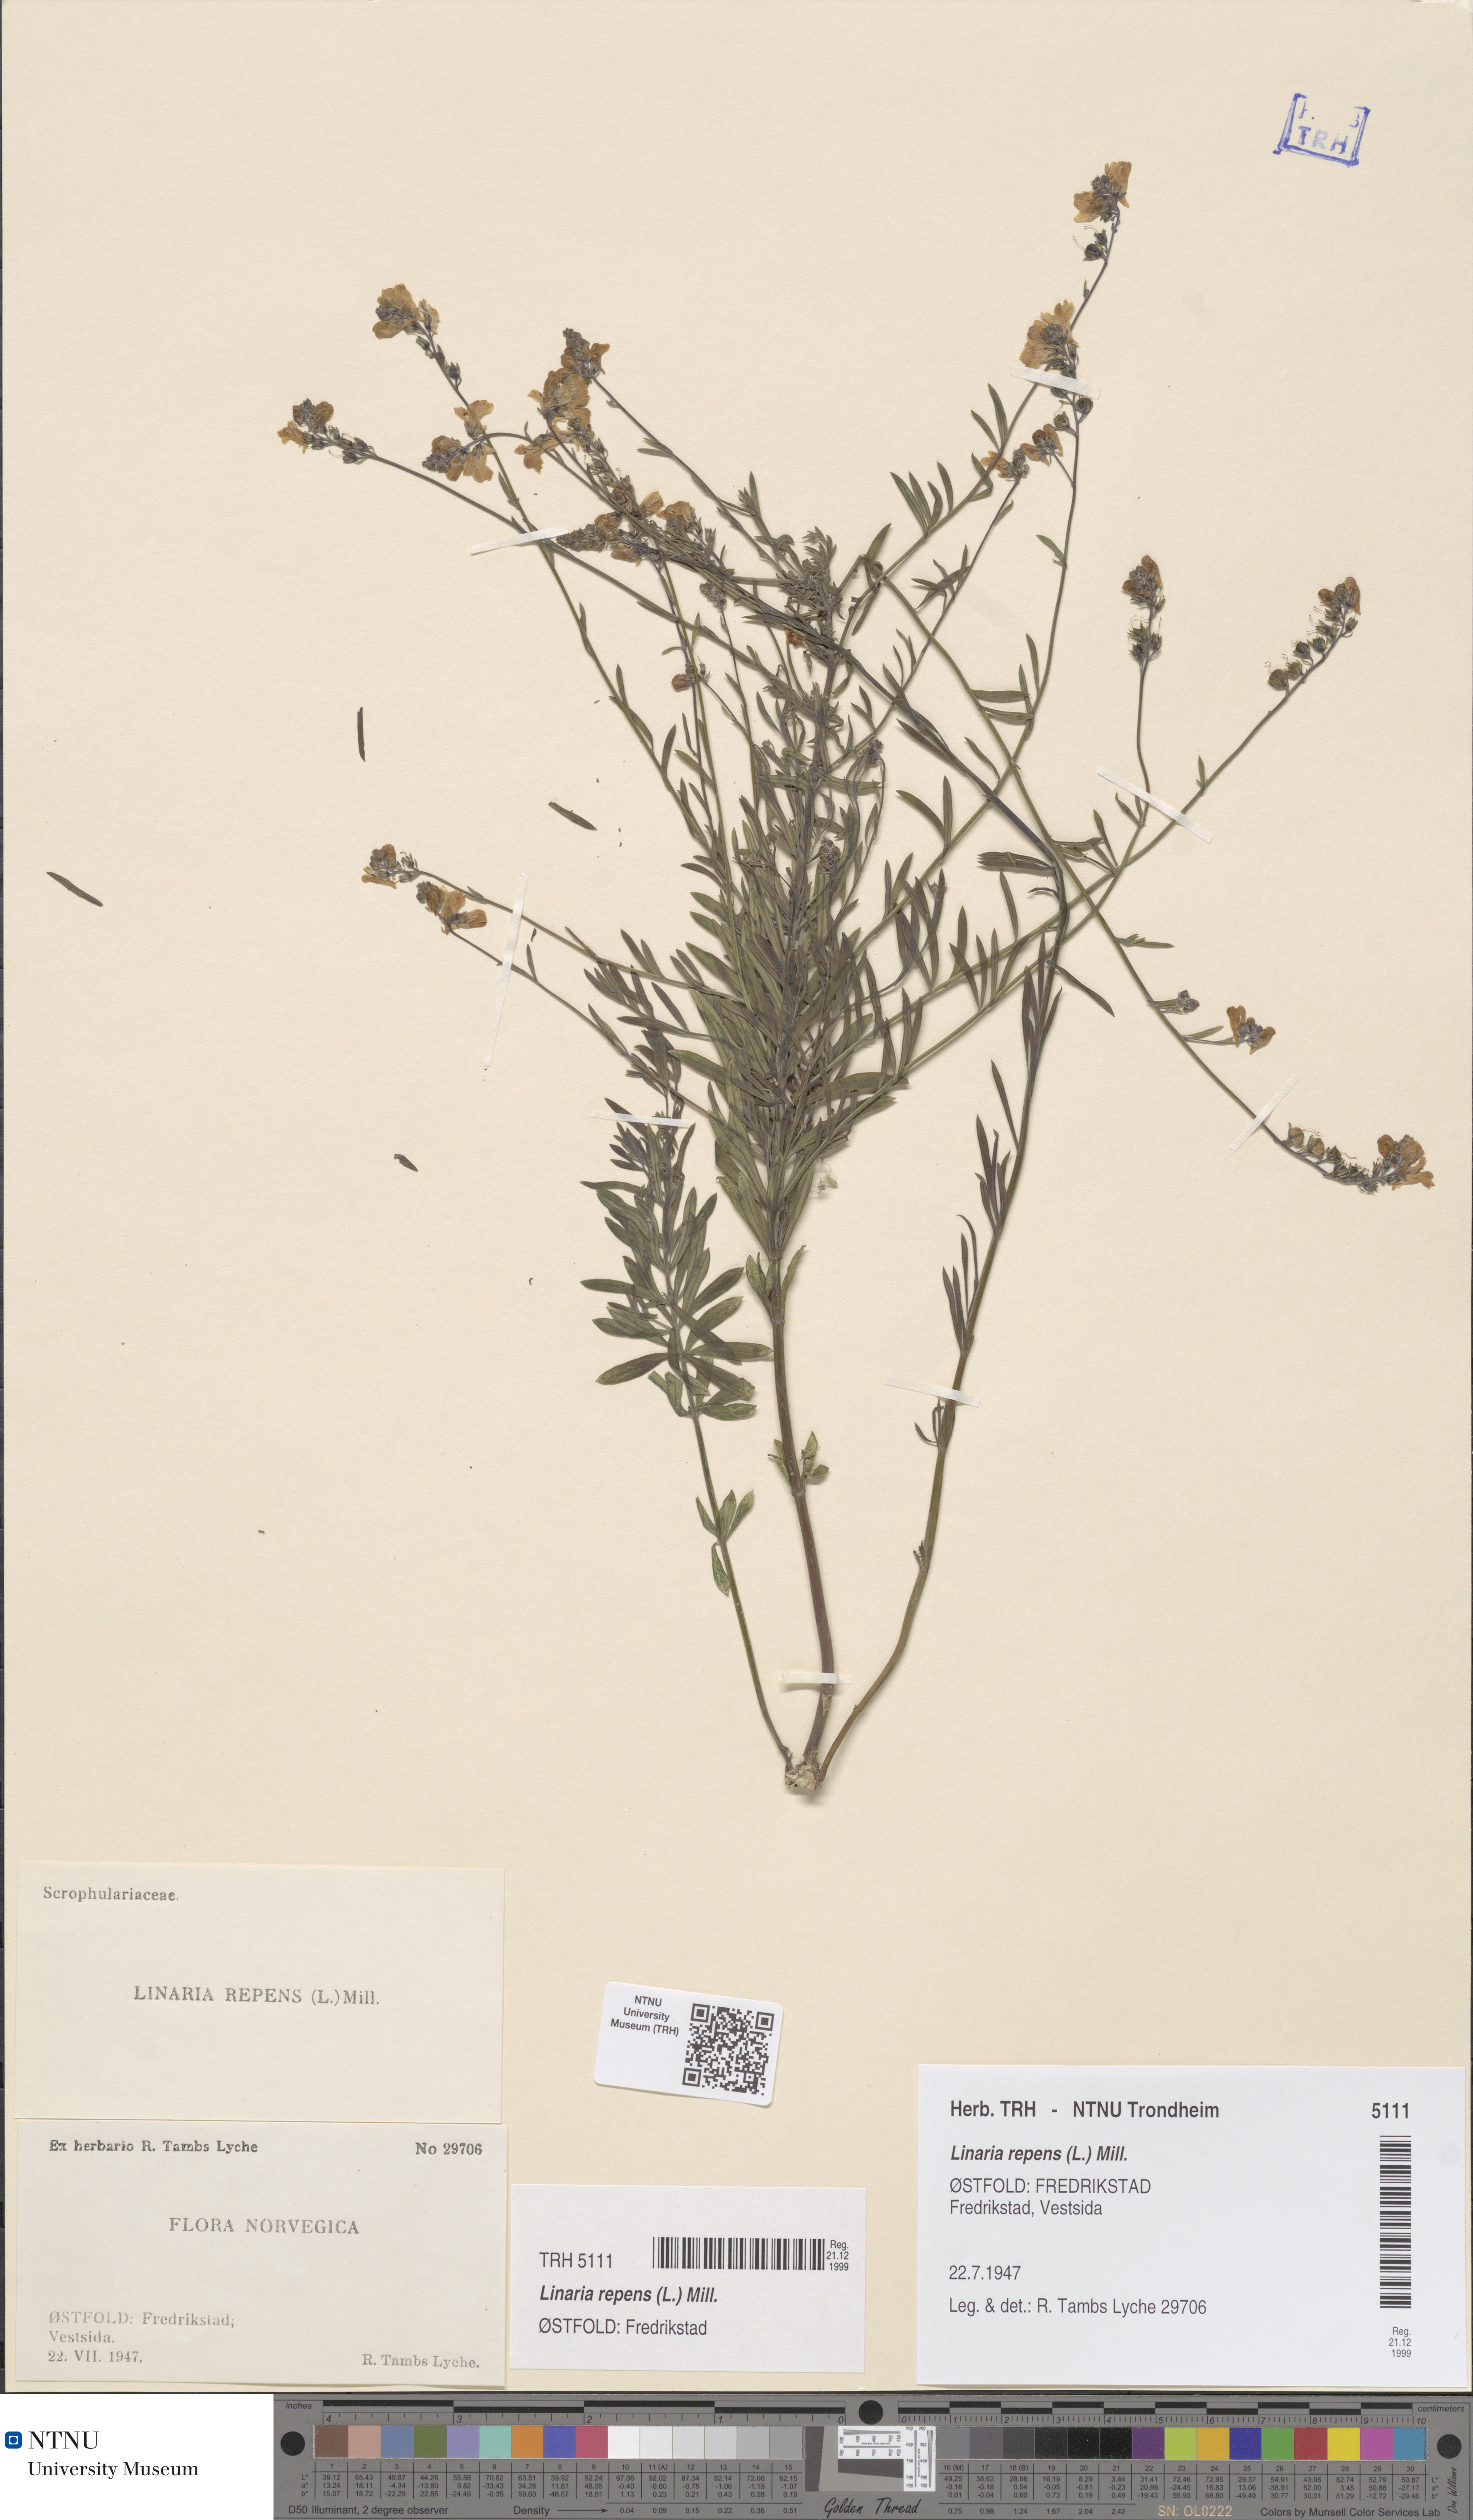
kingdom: Plantae
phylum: Tracheophyta
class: Magnoliopsida
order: Lamiales
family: Plantaginaceae
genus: Linaria
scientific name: Linaria repens
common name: Pale toadflax
